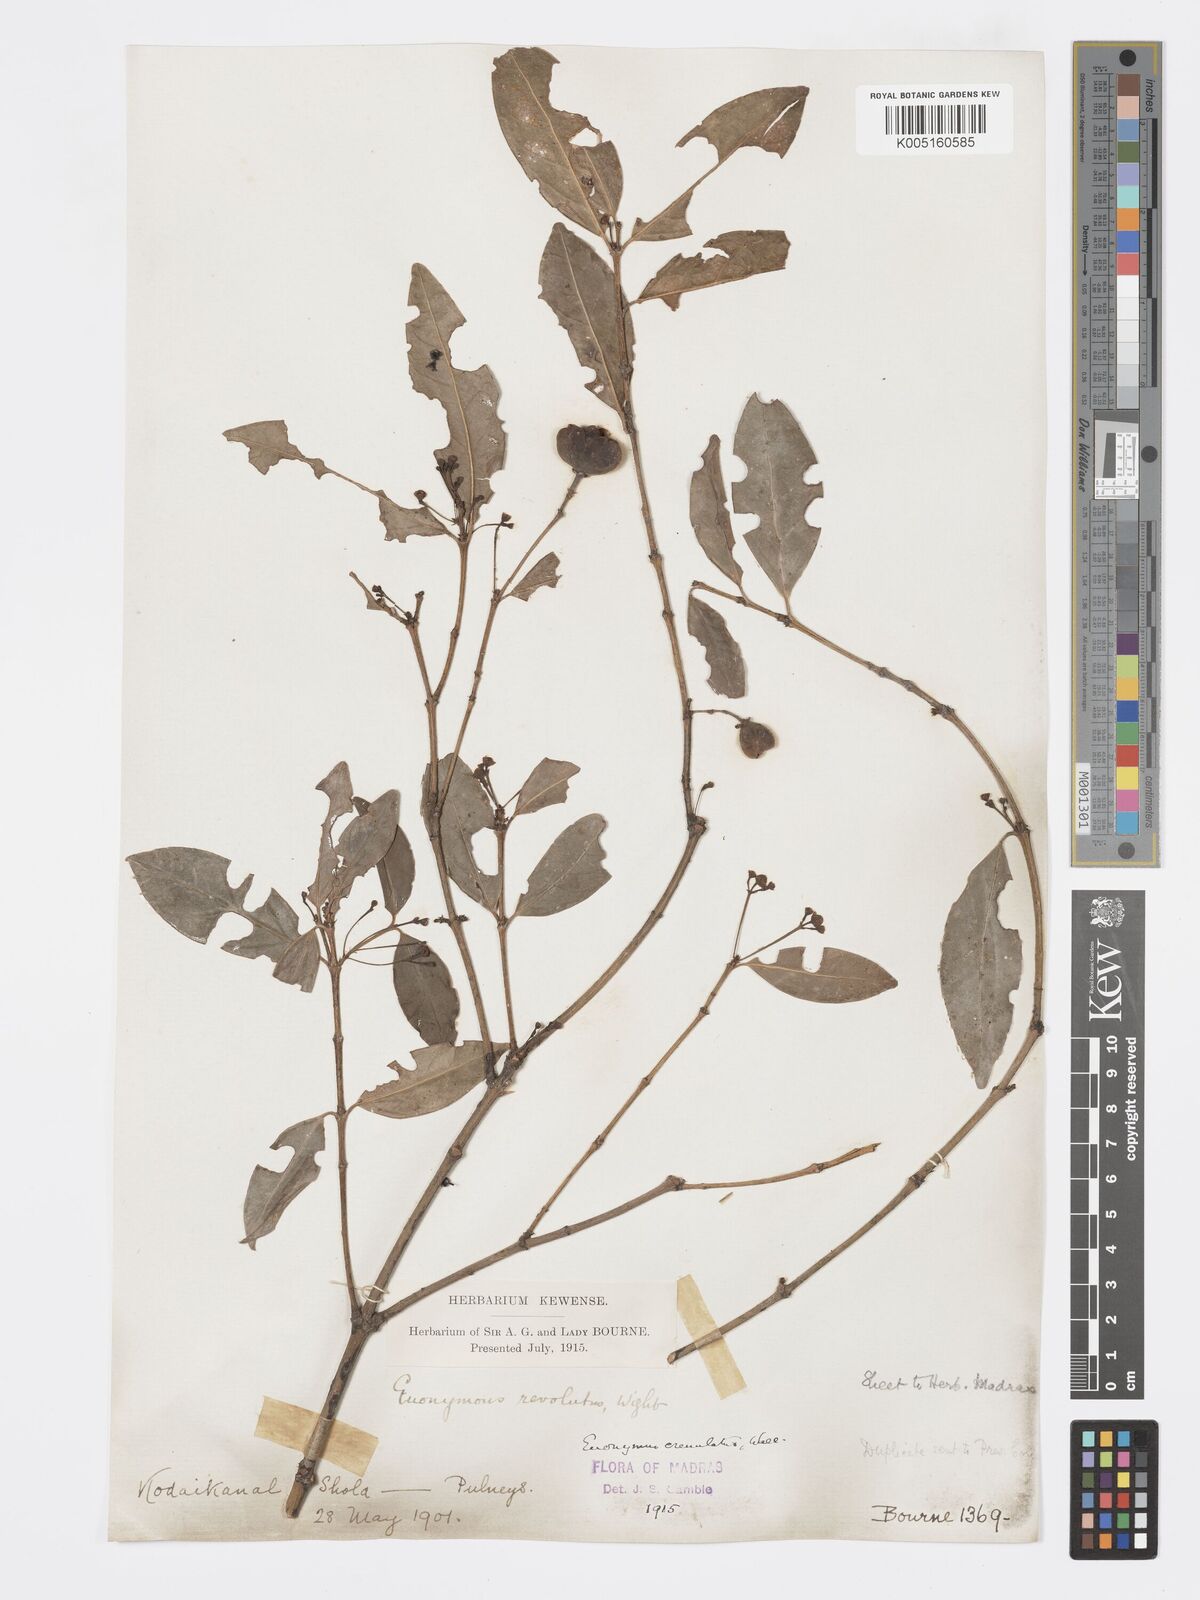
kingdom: Plantae
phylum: Tracheophyta
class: Magnoliopsida
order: Celastrales
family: Celastraceae
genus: Euonymus
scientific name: Euonymus crenulatus
